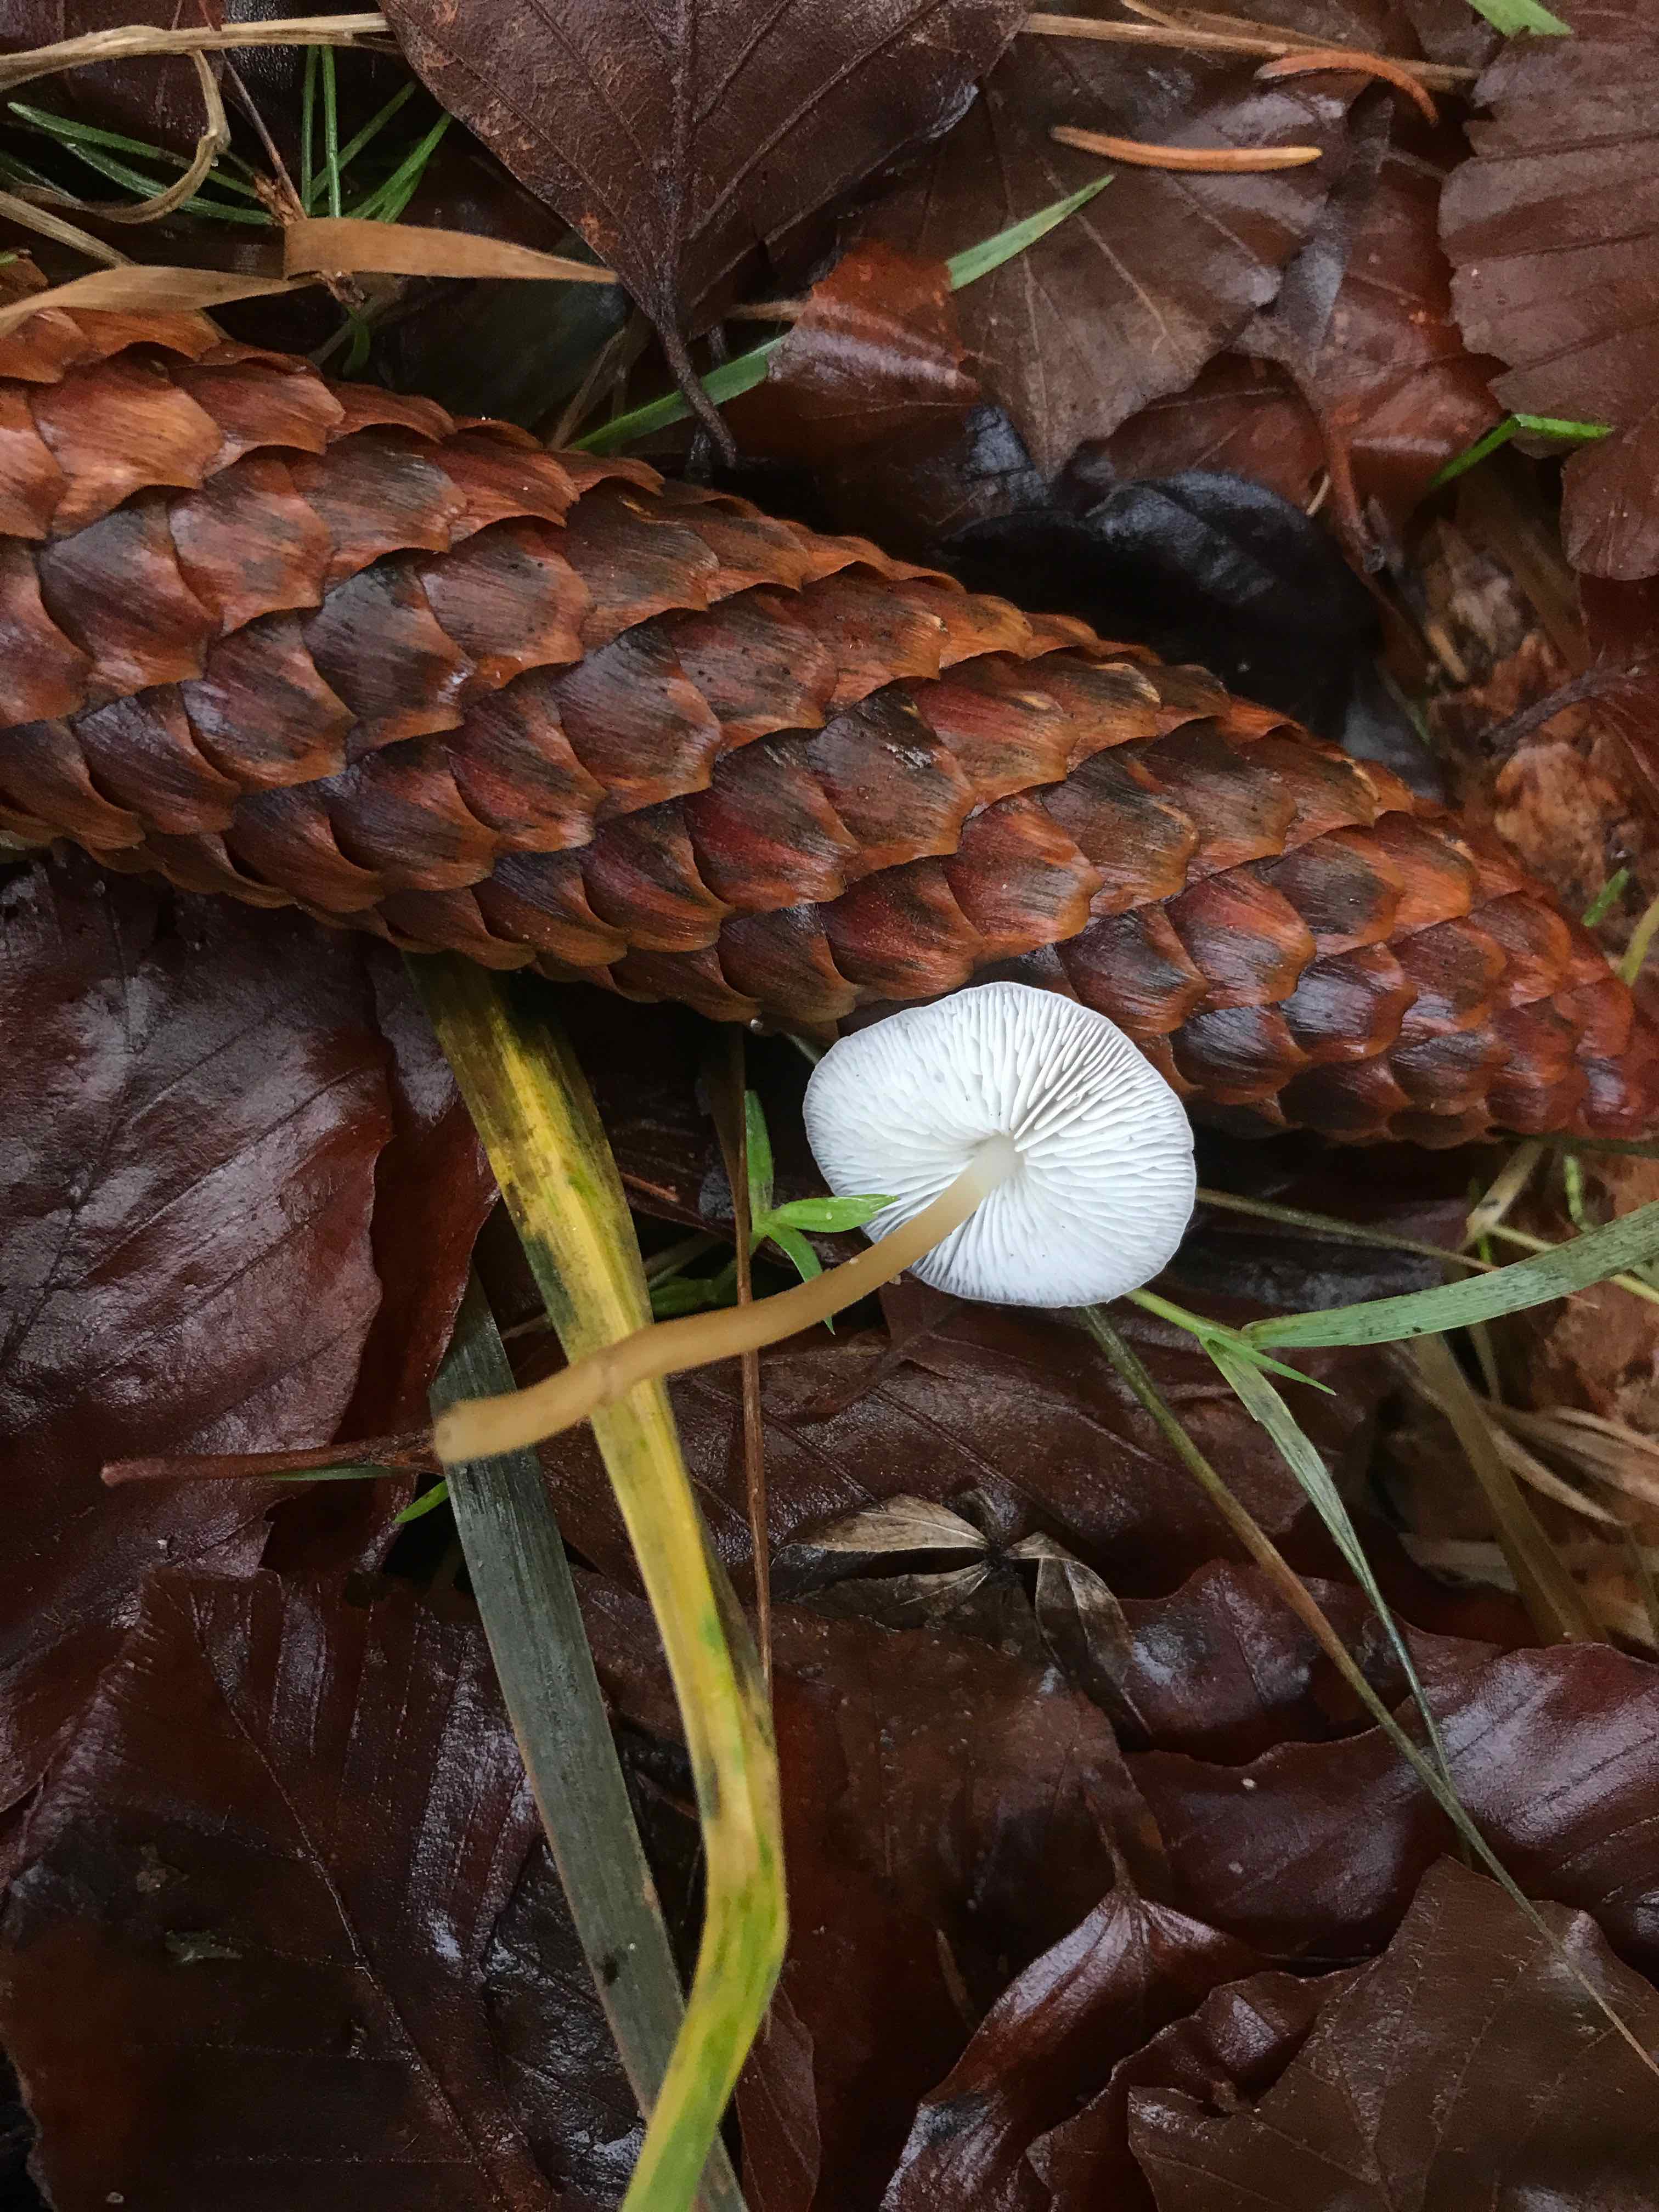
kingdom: Fungi
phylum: Basidiomycota
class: Agaricomycetes
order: Agaricales
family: Physalacriaceae
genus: Strobilurus
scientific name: Strobilurus esculentus
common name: gran-koglehat
